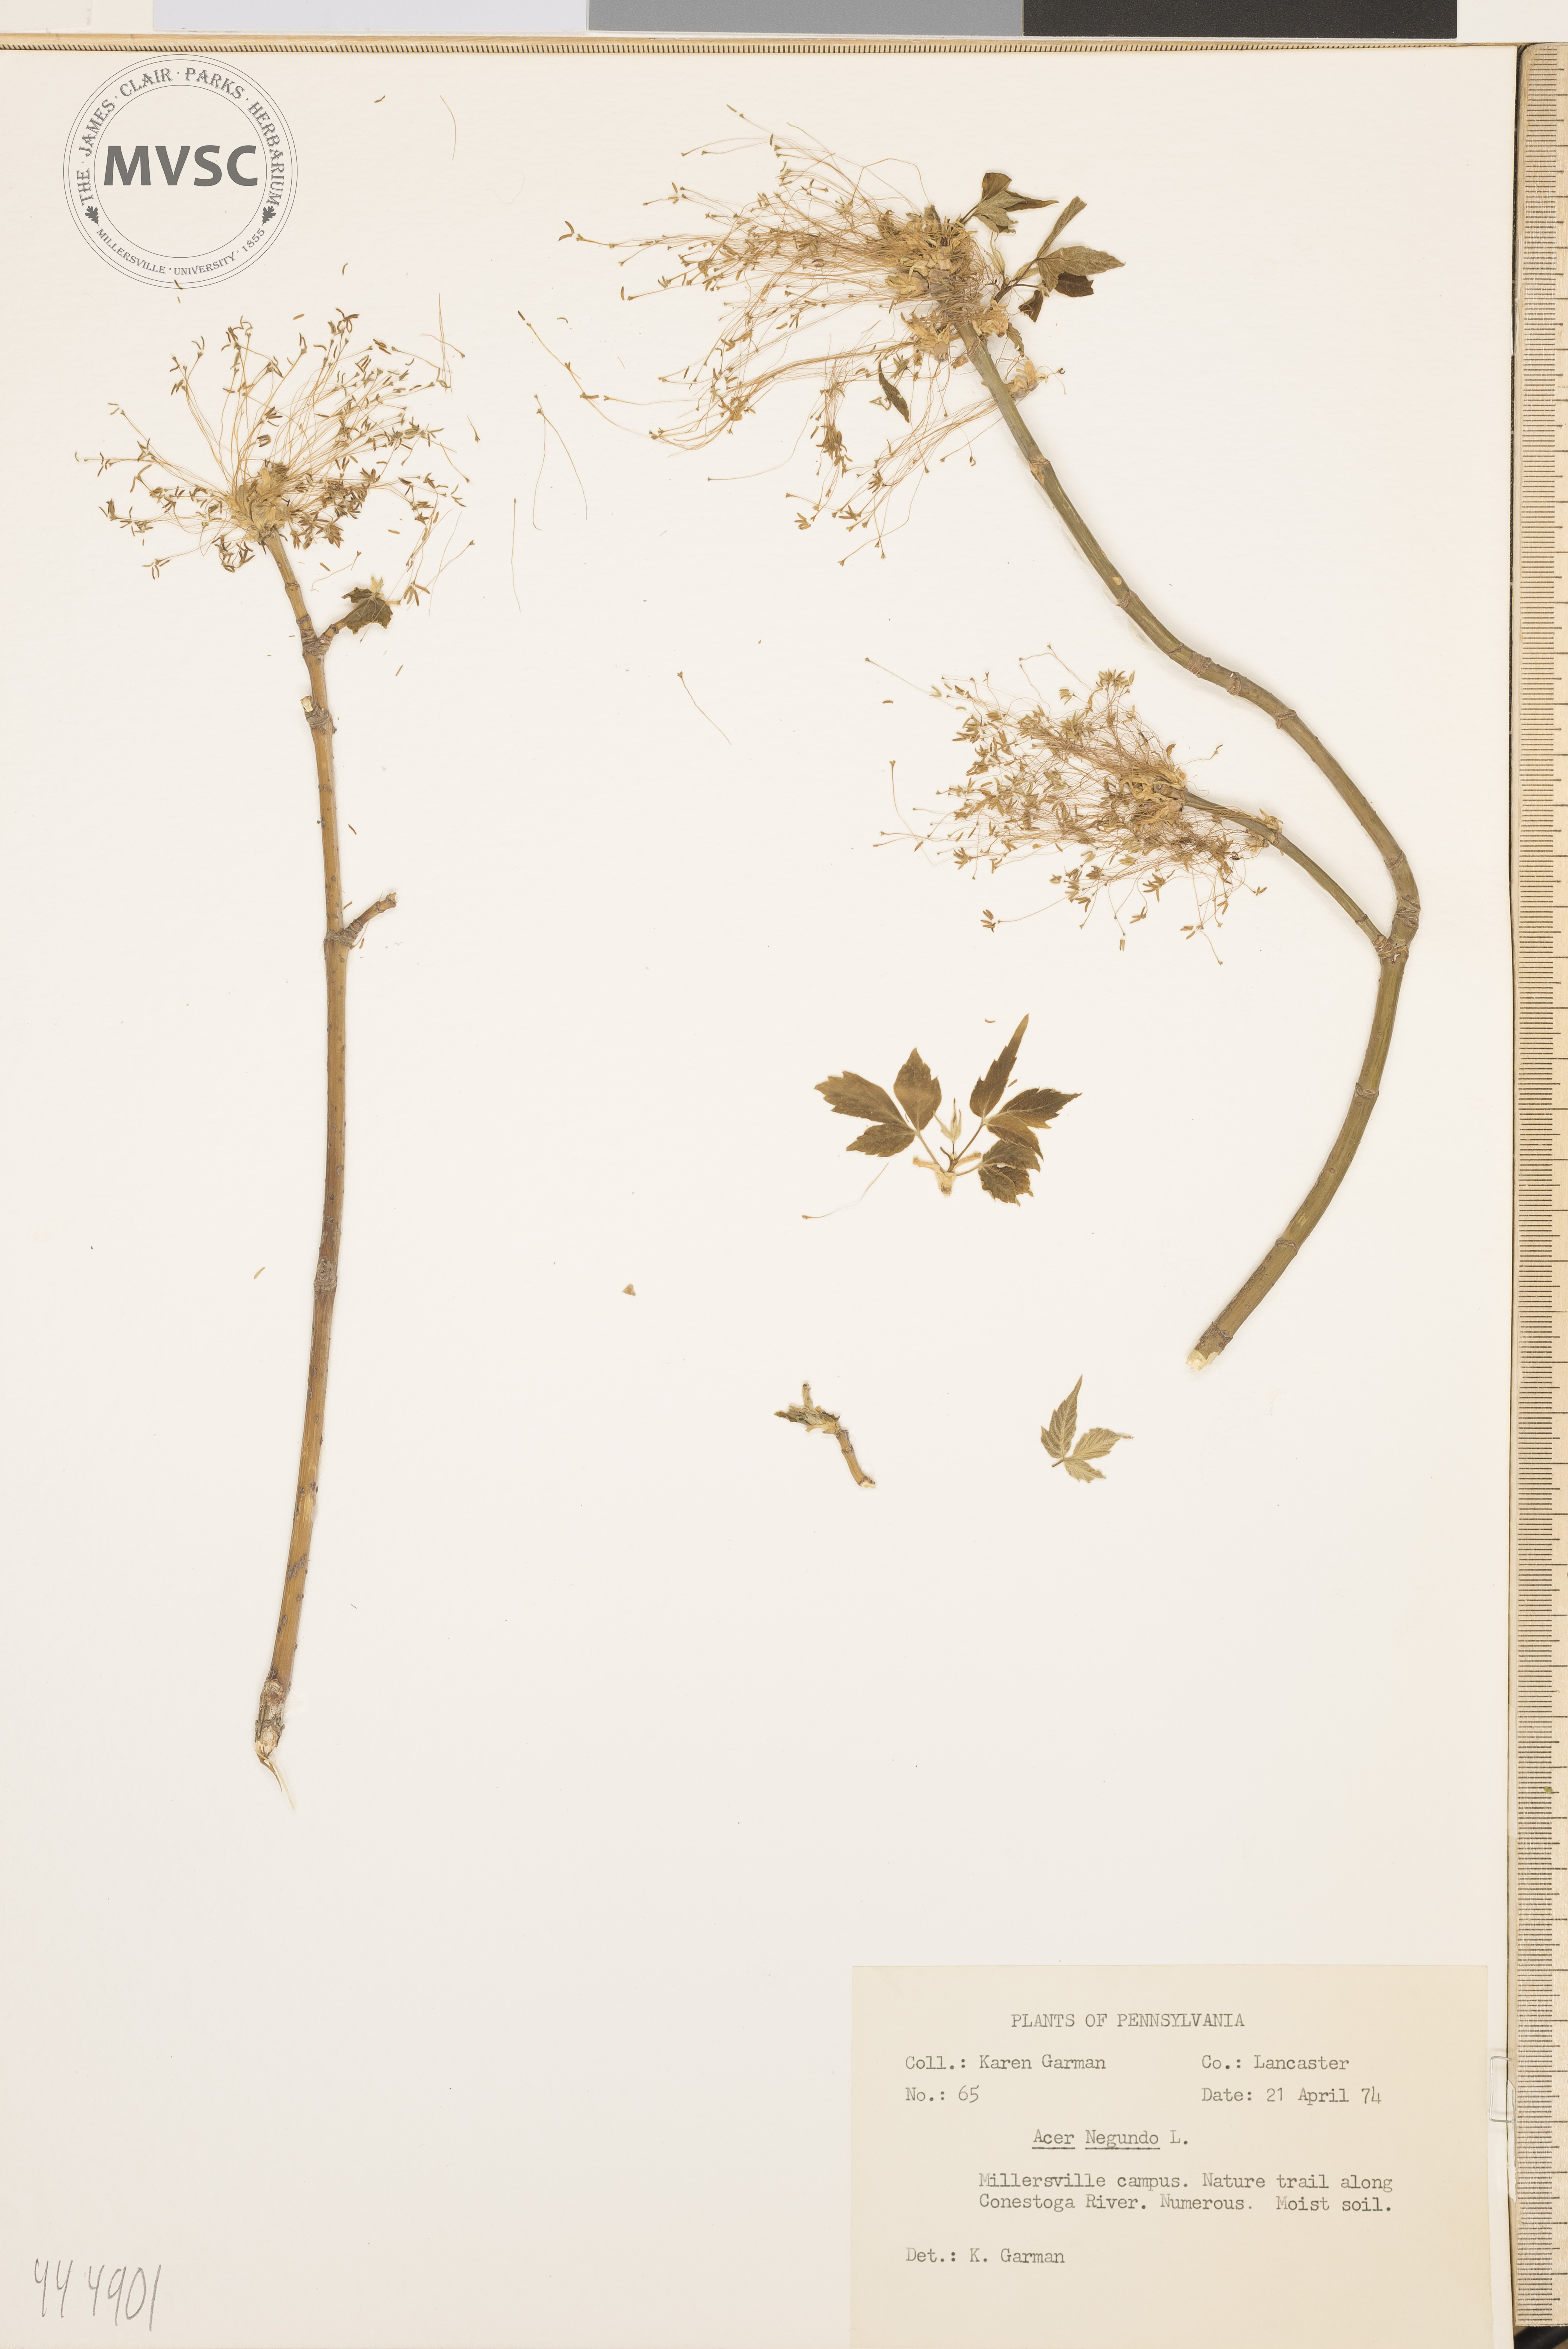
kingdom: Plantae
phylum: Tracheophyta
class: Magnoliopsida
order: Sapindales
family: Sapindaceae
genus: Acer
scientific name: Acer negundo
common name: Ashleaf maple
